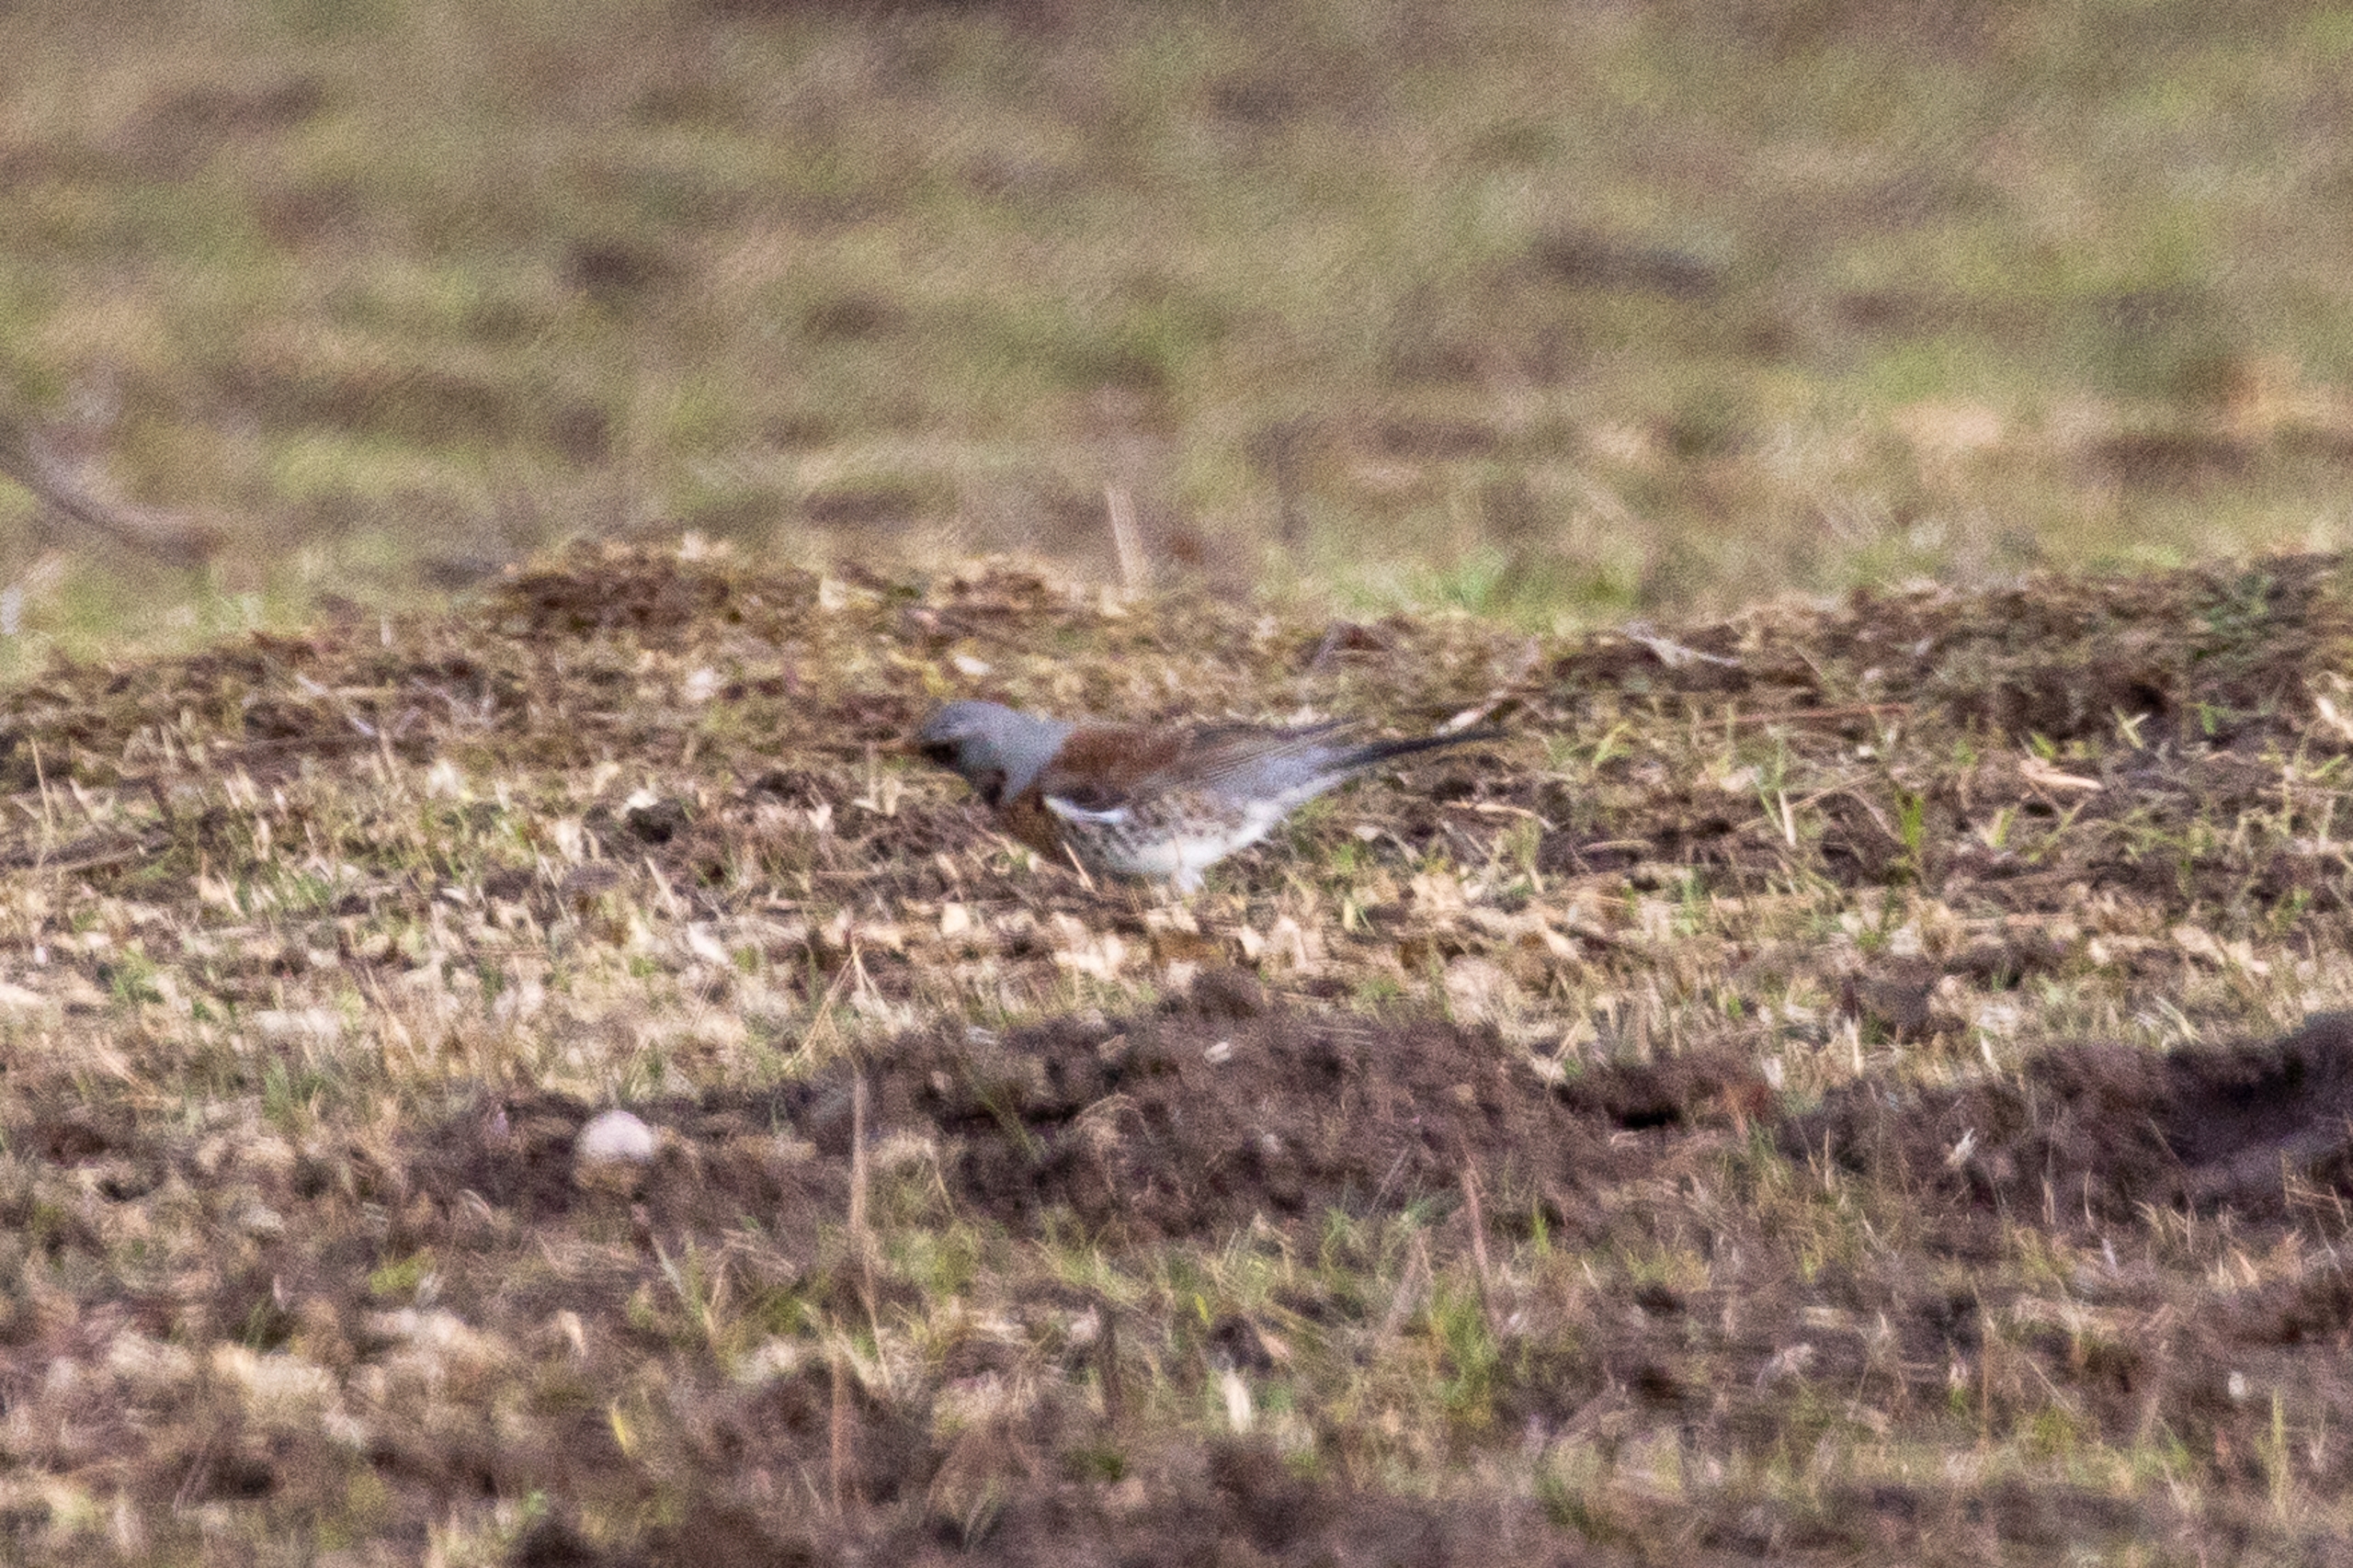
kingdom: Animalia
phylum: Chordata
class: Aves
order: Passeriformes
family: Turdidae
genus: Turdus
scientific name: Turdus pilaris
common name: Sjagger
